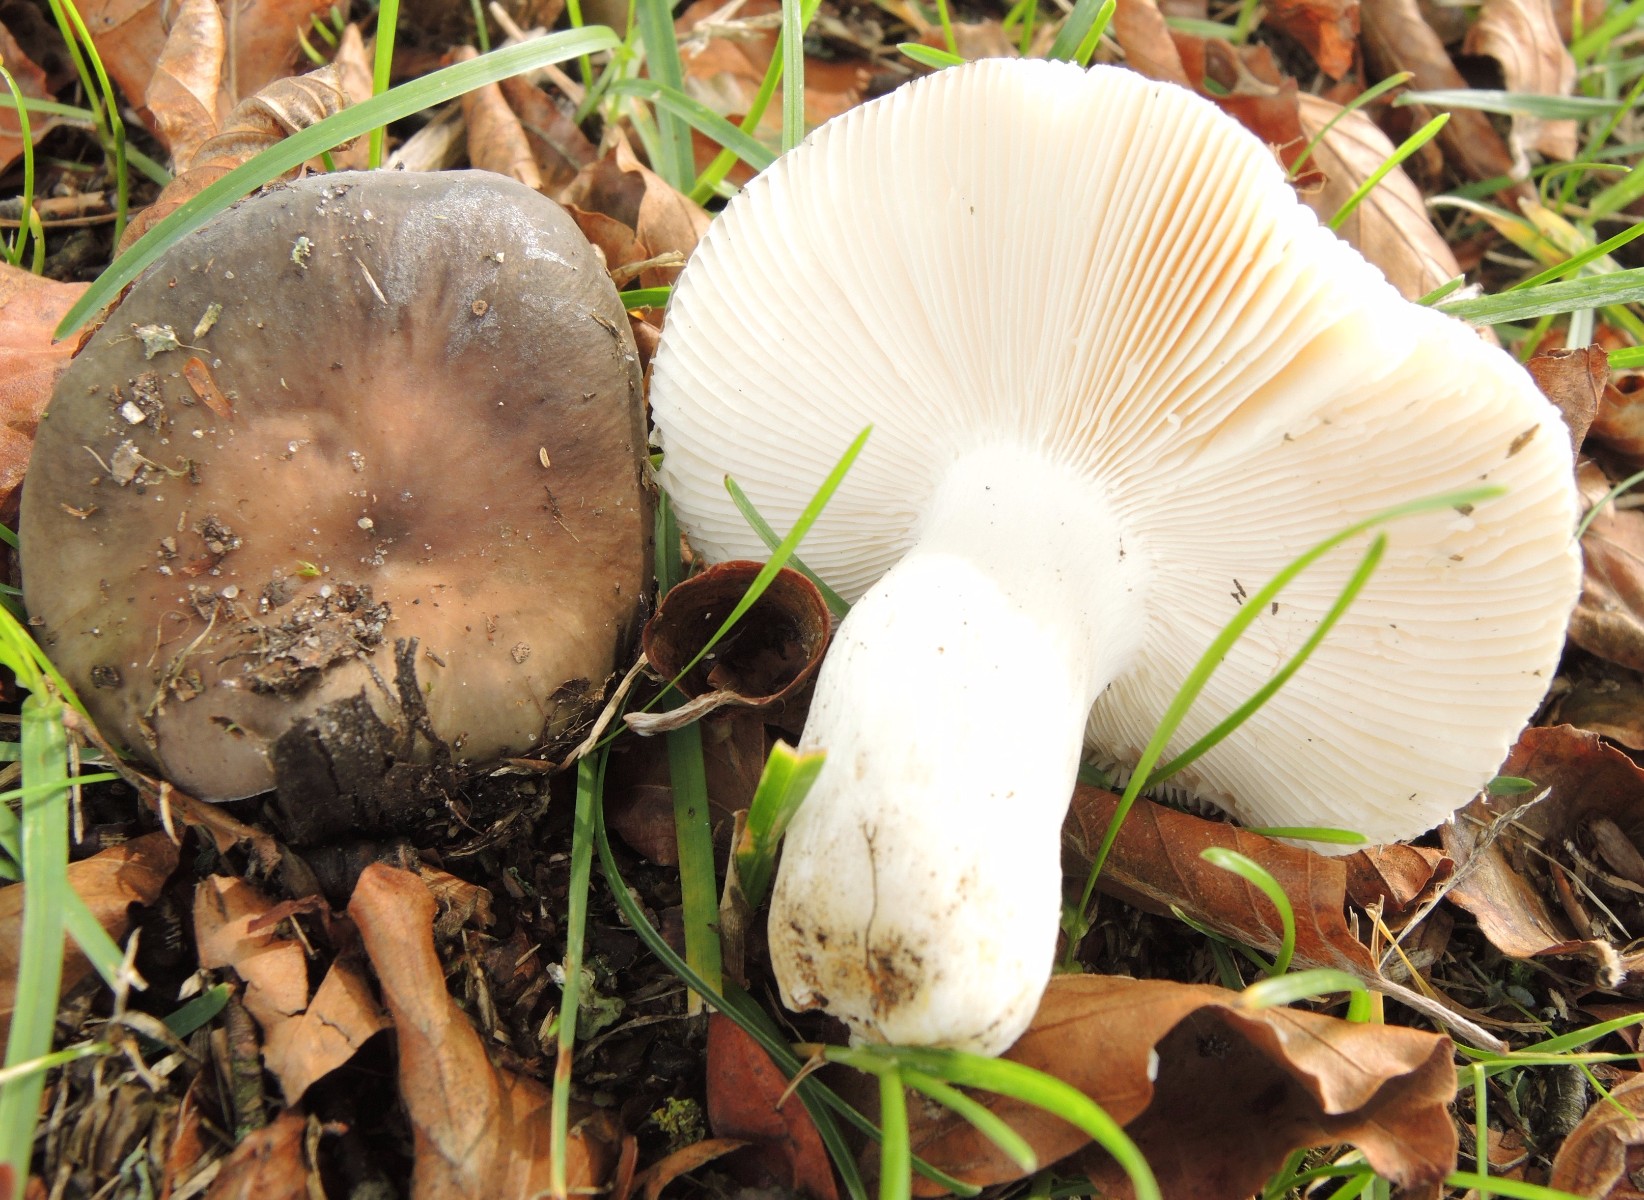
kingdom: Fungi
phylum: Basidiomycota
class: Agaricomycetes
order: Russulales
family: Russulaceae
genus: Russula
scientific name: Russula grisea
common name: grålig skørhat
